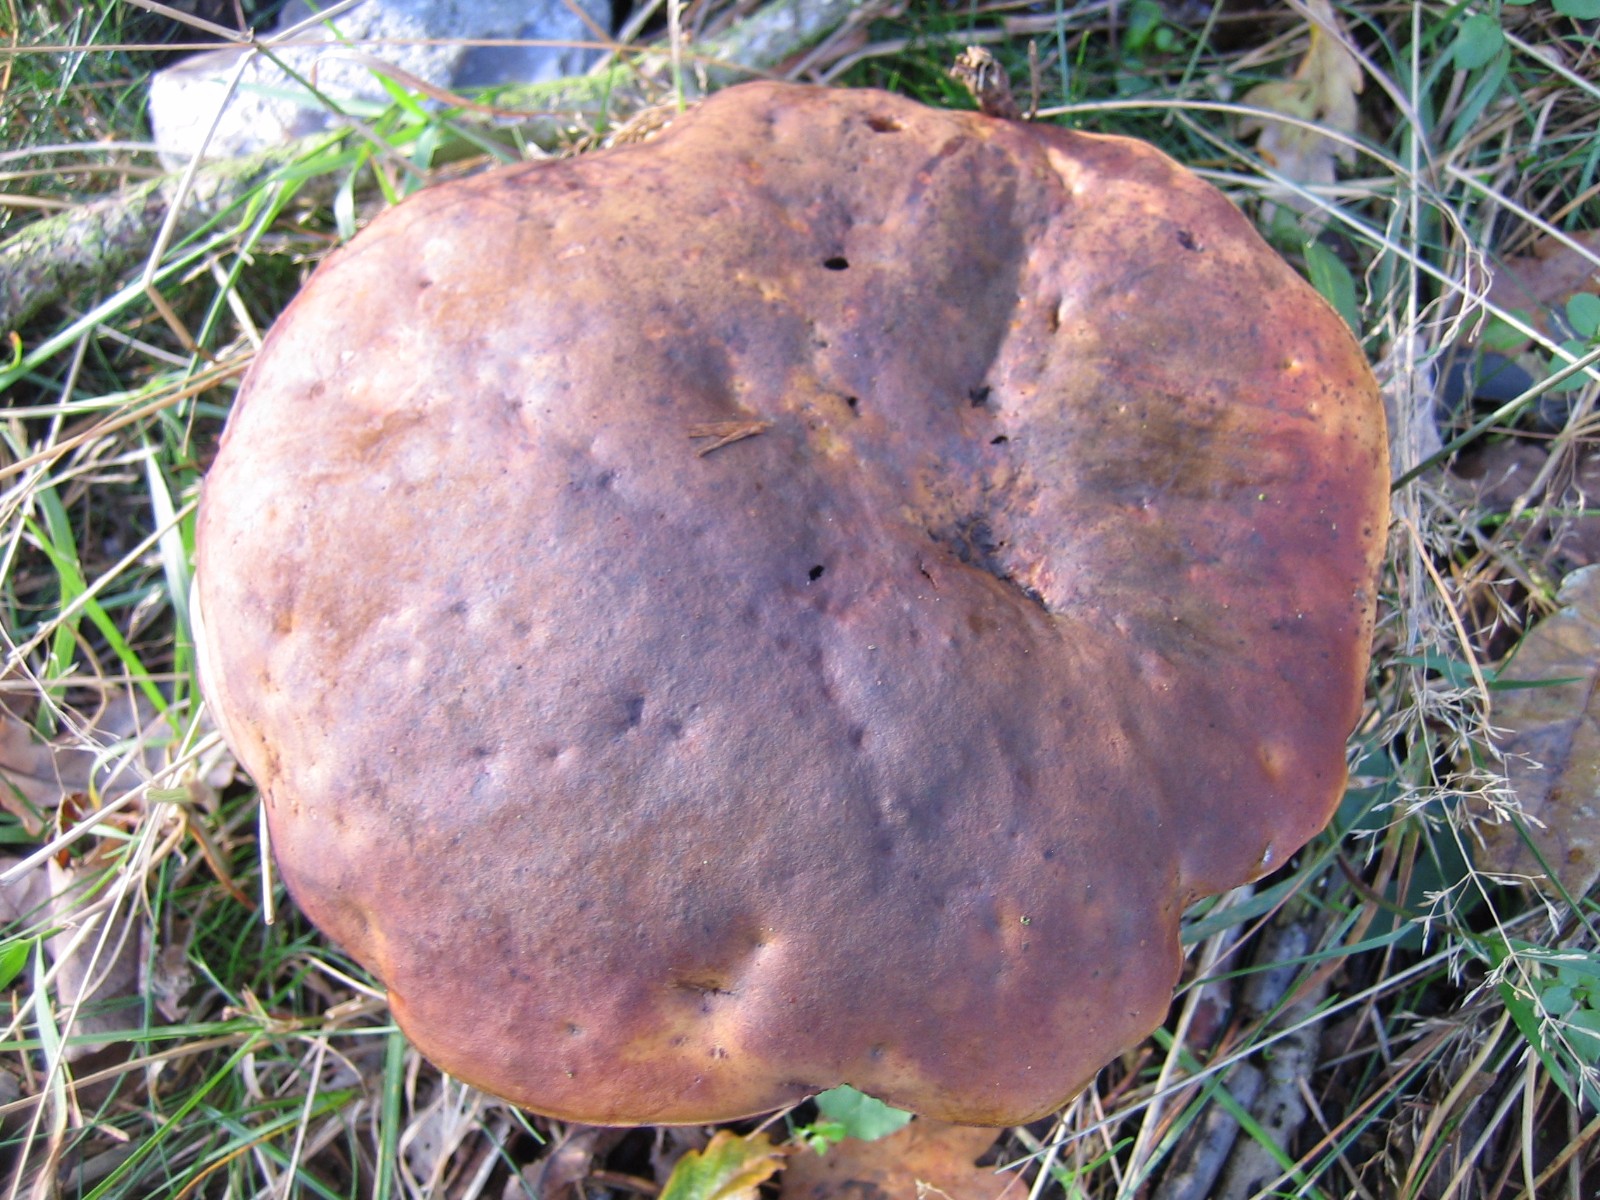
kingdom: Fungi
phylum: Basidiomycota
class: Agaricomycetes
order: Boletales
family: Boletaceae
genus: Neoboletus
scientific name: Neoboletus
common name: indigorørhat
